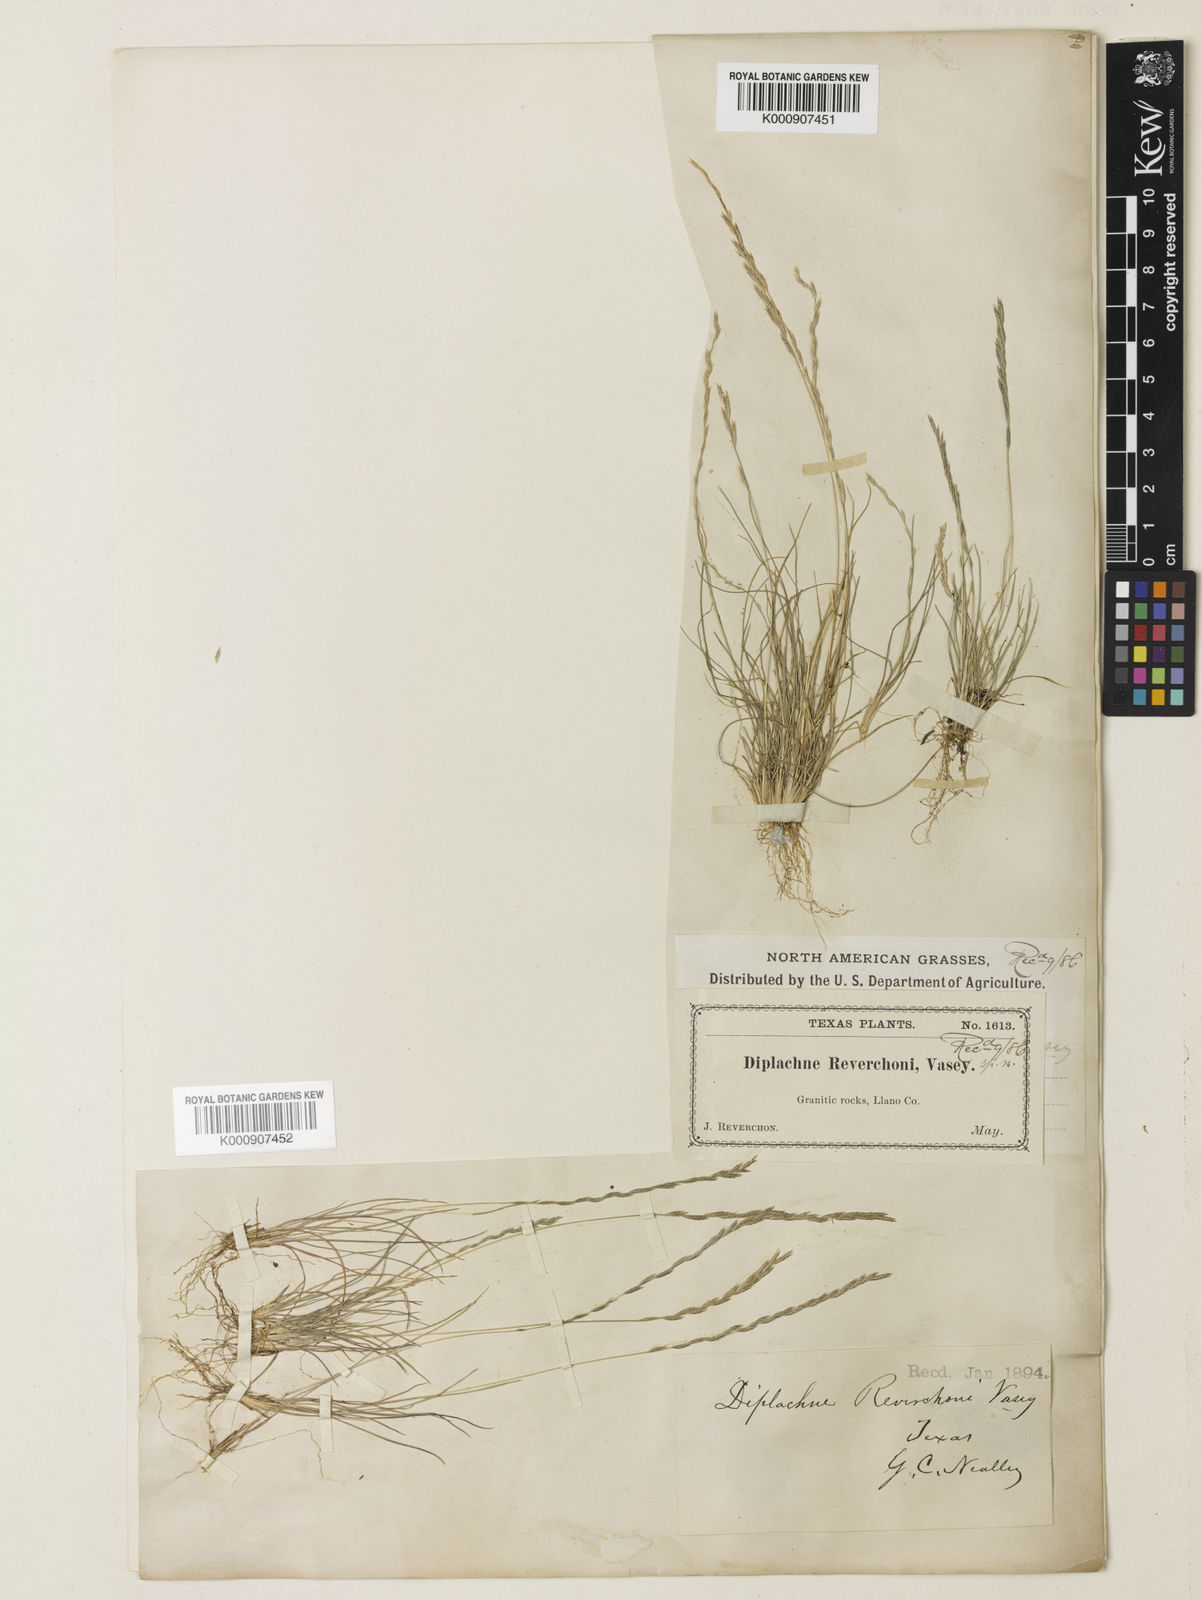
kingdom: Plantae
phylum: Tracheophyta
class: Liliopsida
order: Poales
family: Poaceae
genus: Tripogonella
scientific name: Tripogonella spicata
